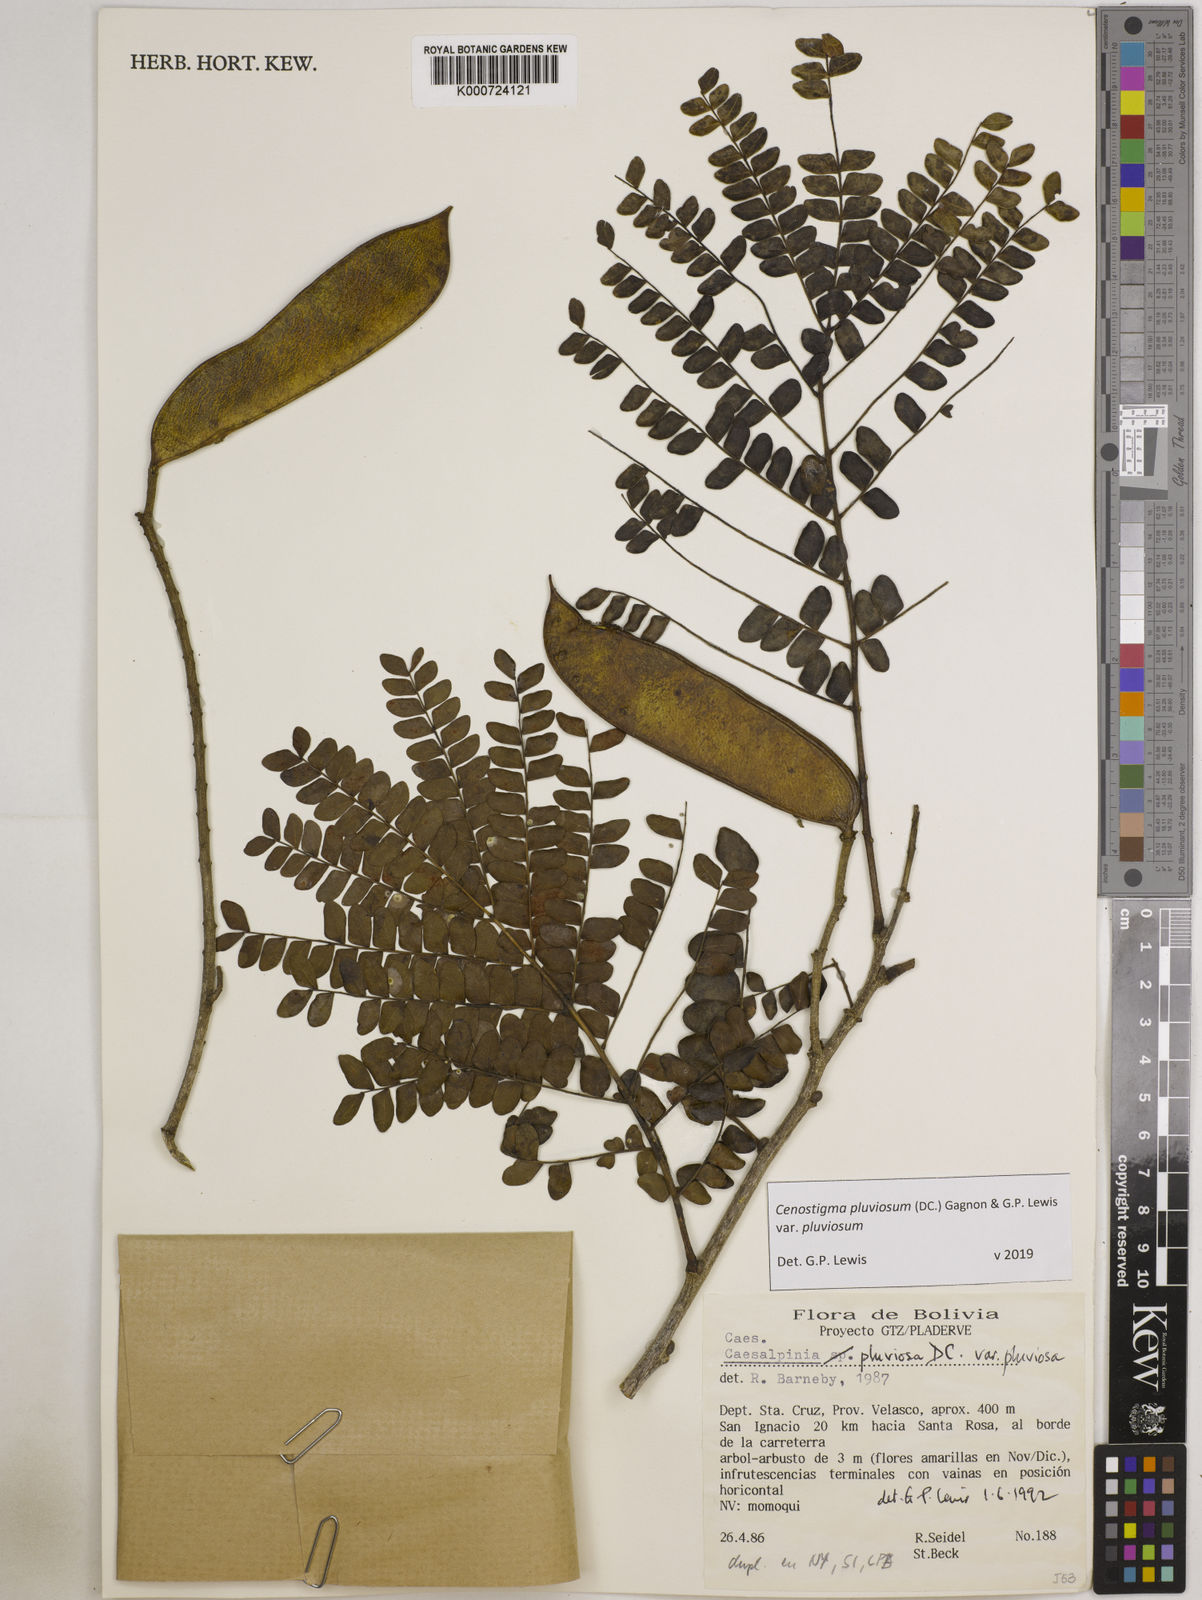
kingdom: Plantae
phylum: Tracheophyta
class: Magnoliopsida
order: Fabales
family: Fabaceae
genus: Cenostigma
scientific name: Cenostigma pluviosum
